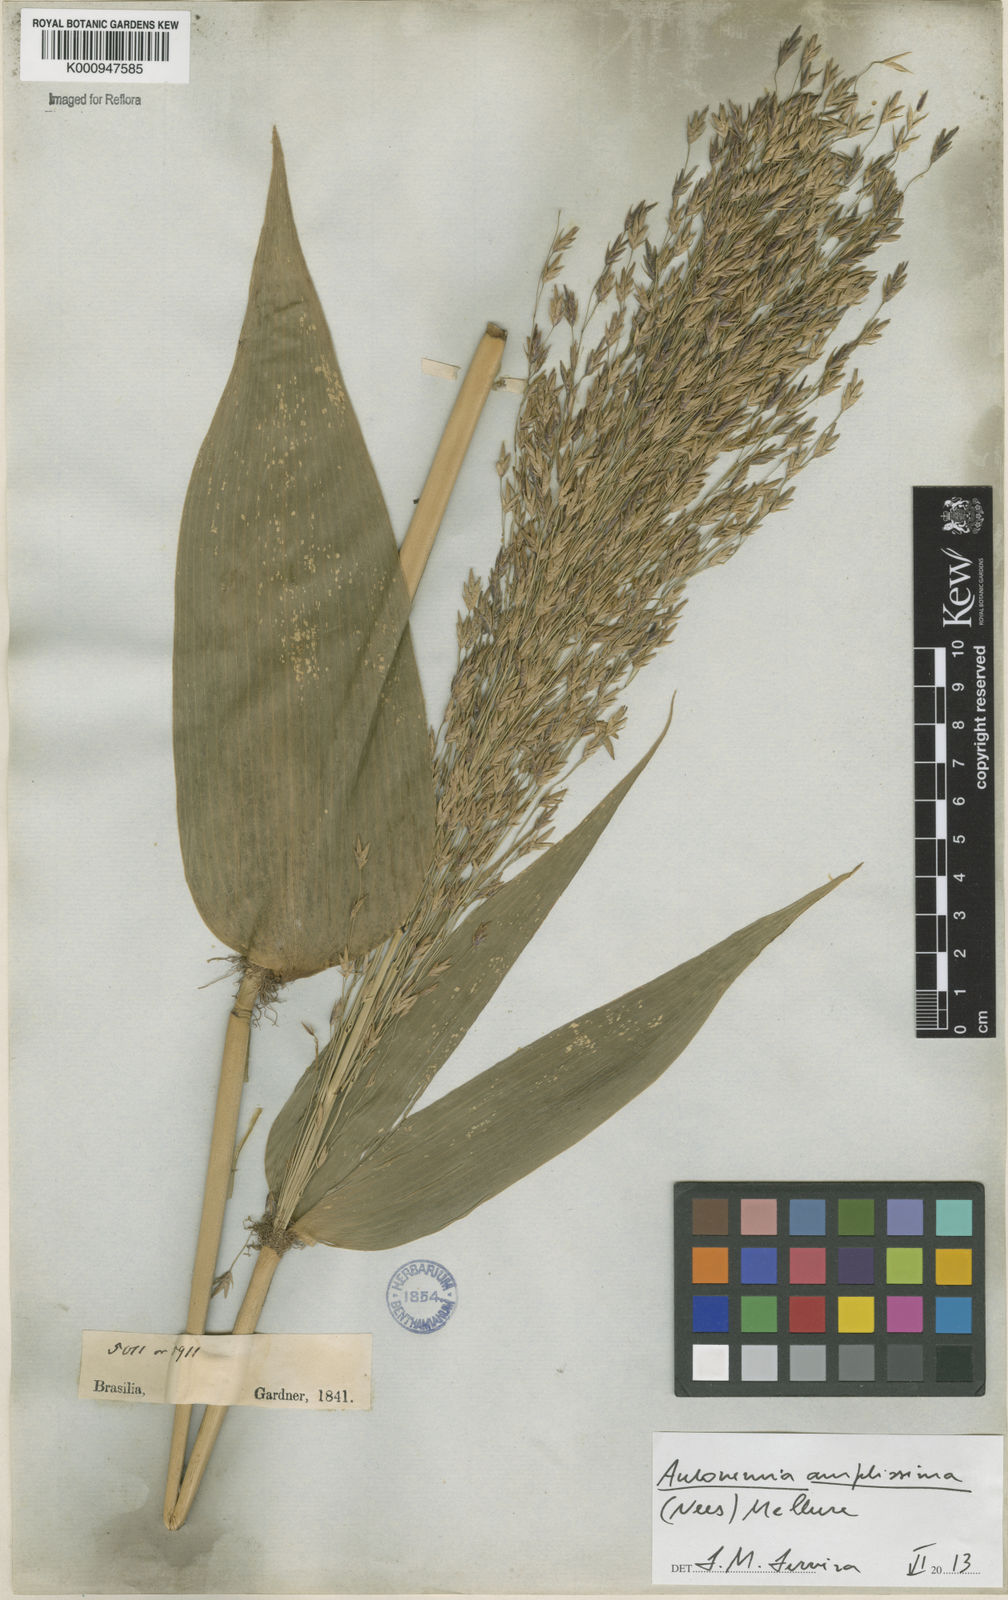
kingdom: Plantae
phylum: Tracheophyta
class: Liliopsida
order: Poales
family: Poaceae
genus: Aulonemia
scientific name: Aulonemia amplissima
